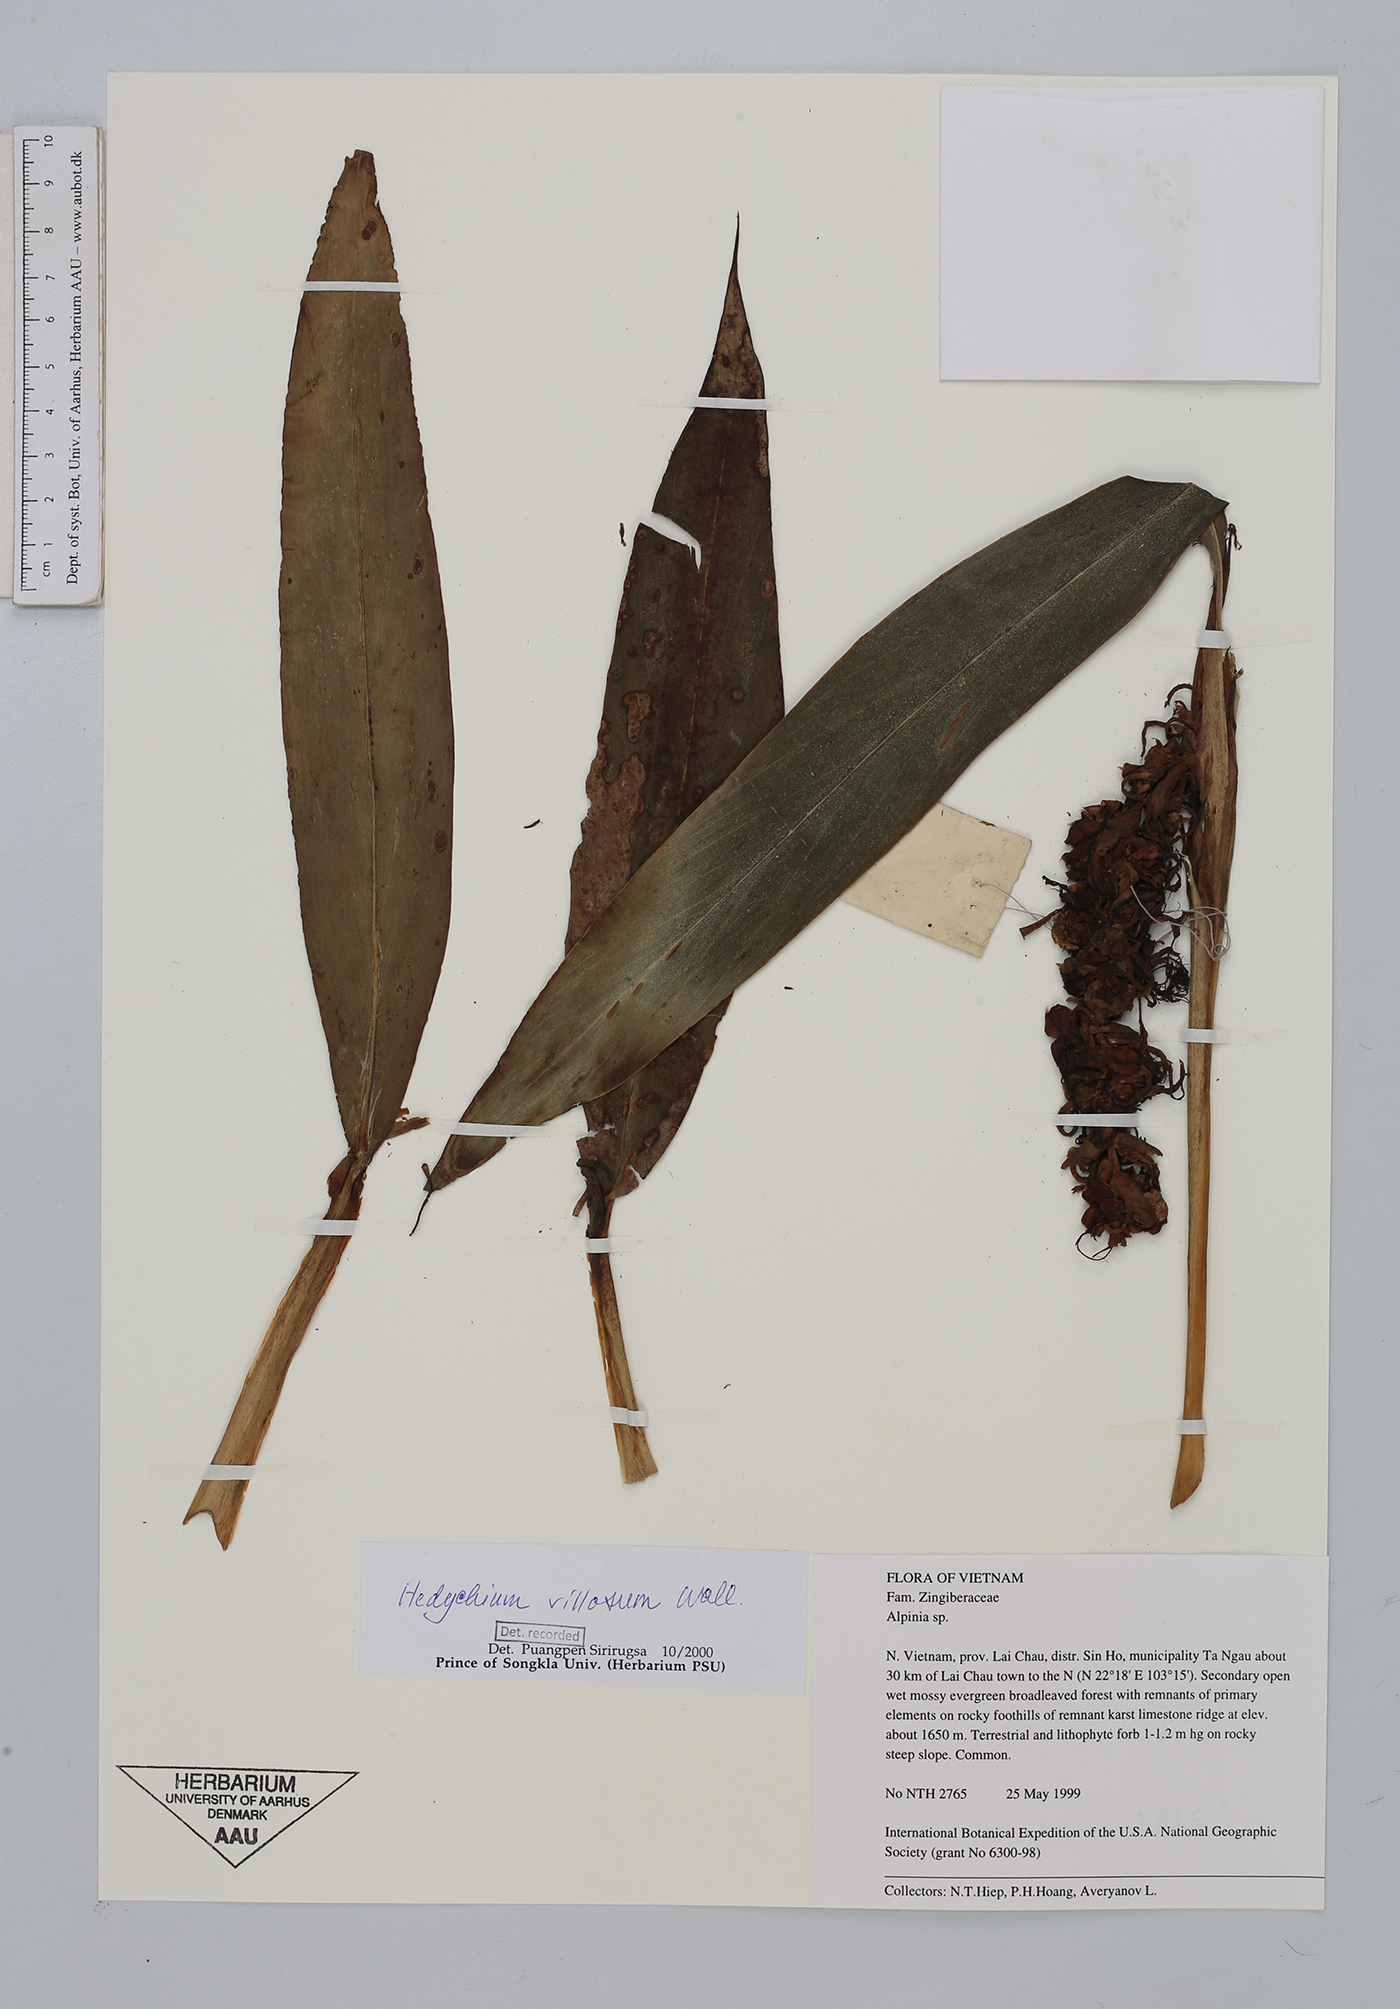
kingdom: Plantae
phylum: Tracheophyta
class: Liliopsida
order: Zingiberales
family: Zingiberaceae
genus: Hedychium
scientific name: Hedychium villosum
